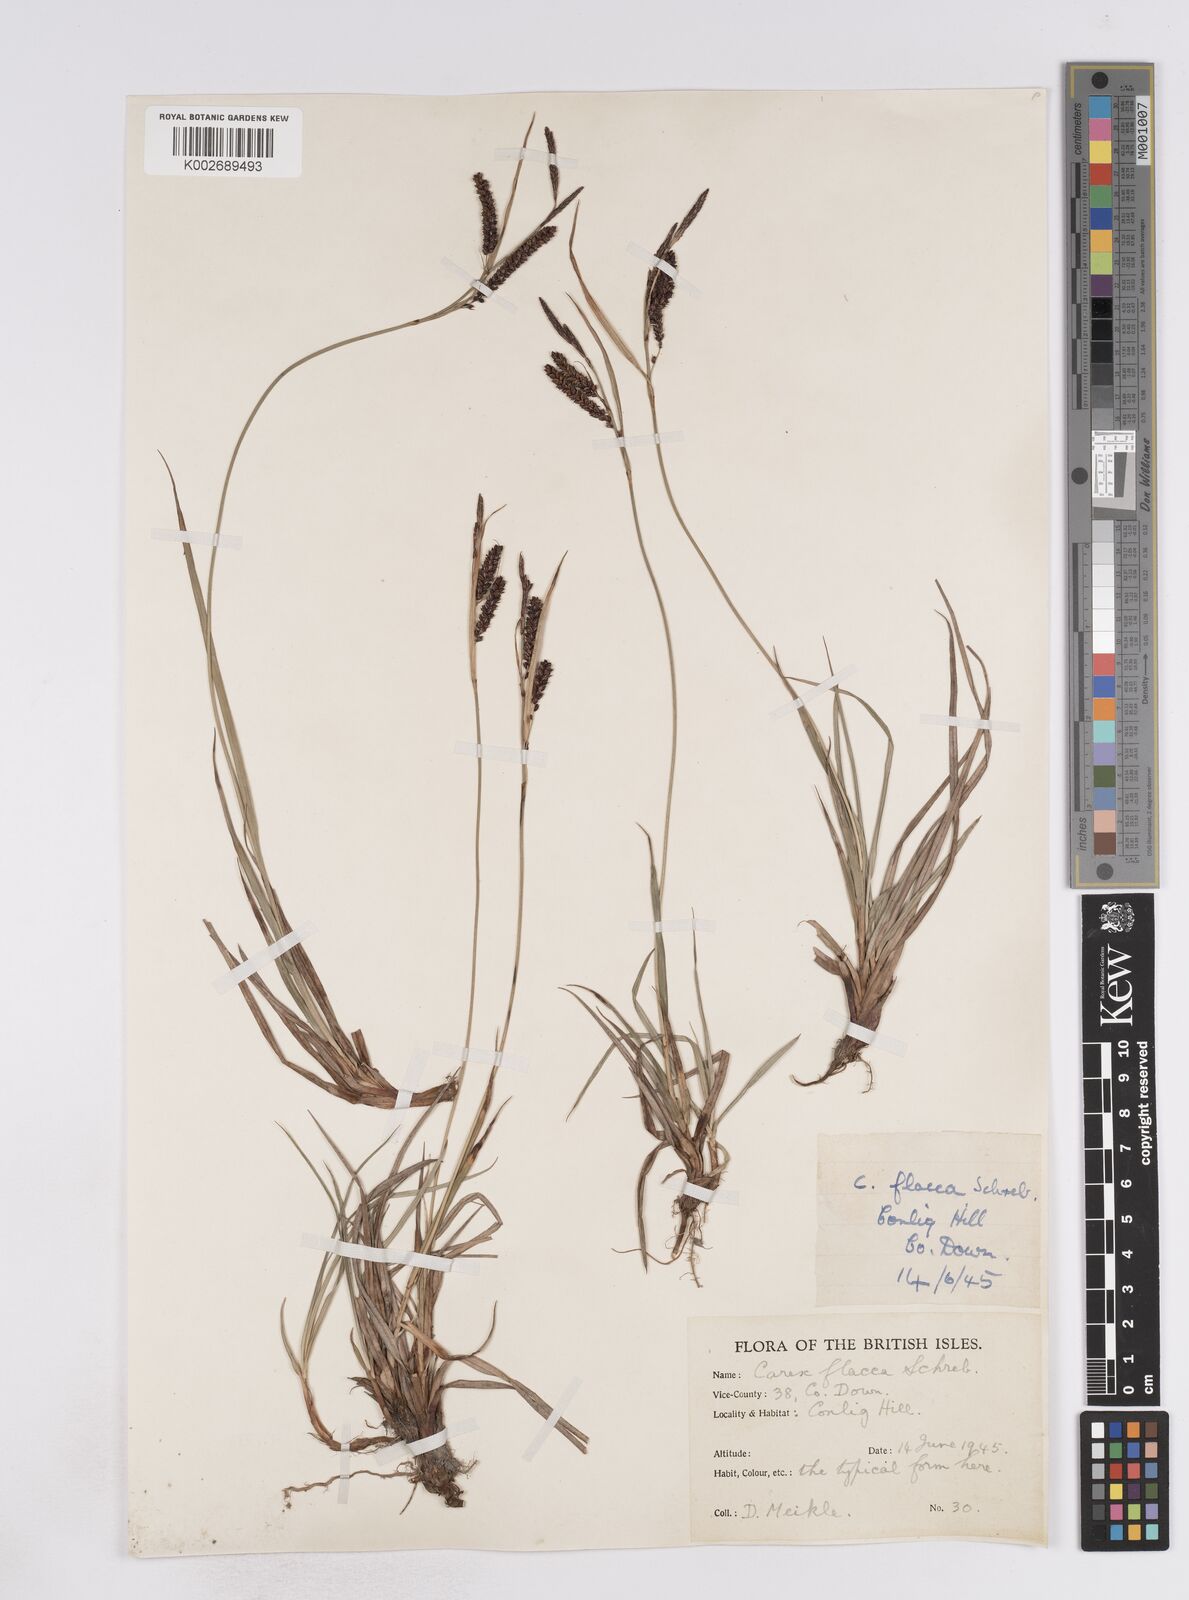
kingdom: Plantae
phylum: Tracheophyta
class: Liliopsida
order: Poales
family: Cyperaceae
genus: Carex
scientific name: Carex flacca
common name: Glaucous sedge
